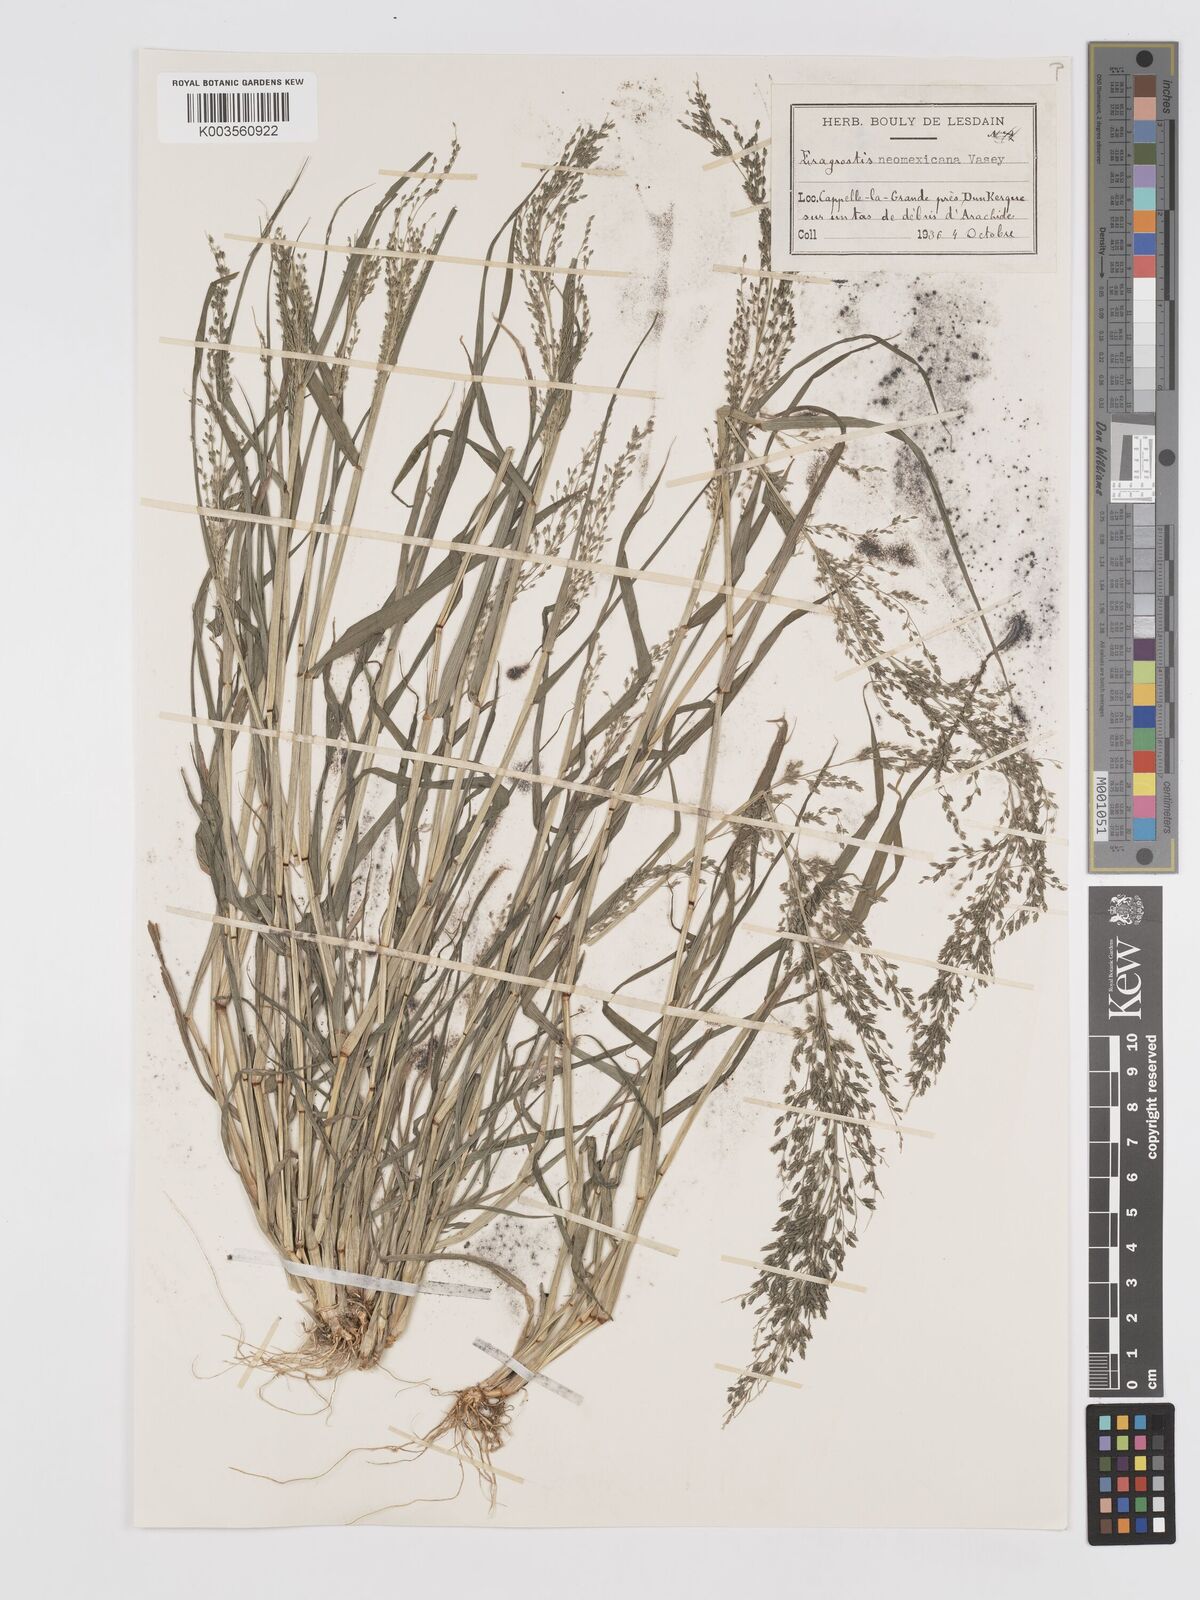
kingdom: Plantae
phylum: Tracheophyta
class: Liliopsida
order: Poales
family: Poaceae
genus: Eragrostis
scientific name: Eragrostis mexicana
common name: Mexican love grass
